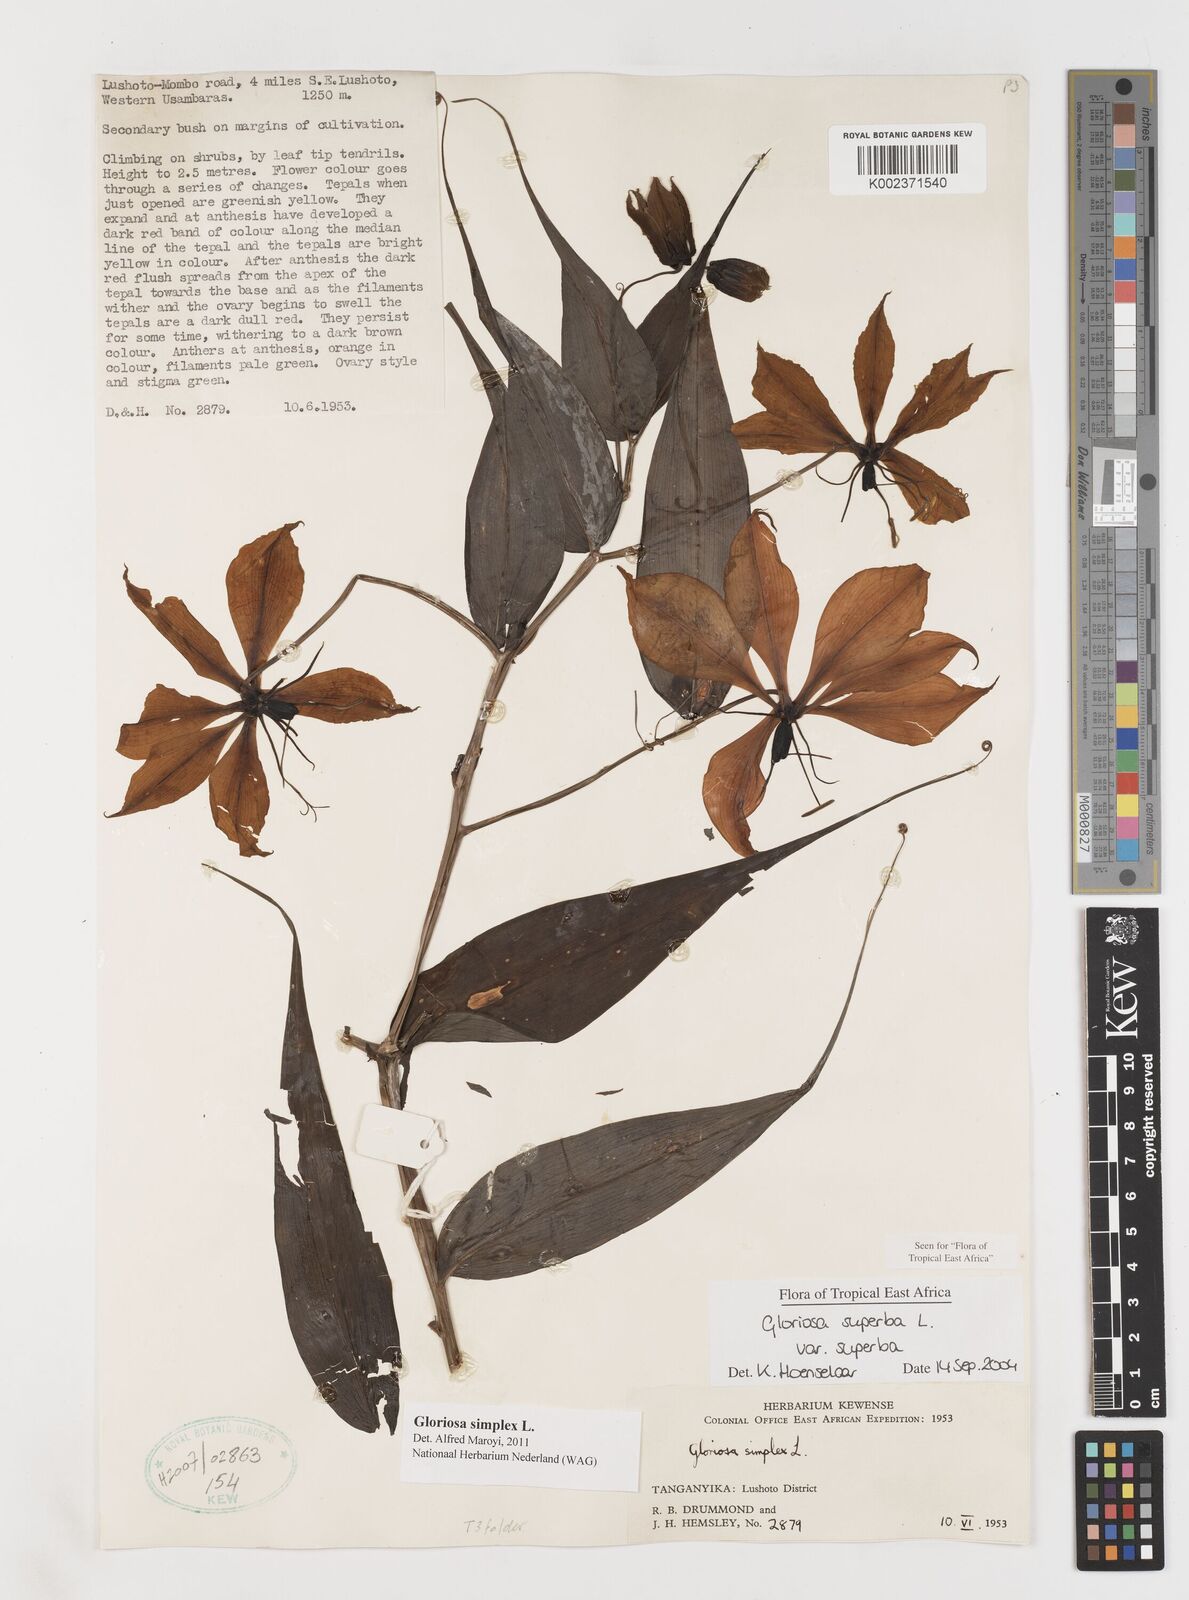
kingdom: Plantae
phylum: Tracheophyta
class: Liliopsida
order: Liliales
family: Colchicaceae
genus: Gloriosa
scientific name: Gloriosa simplex
